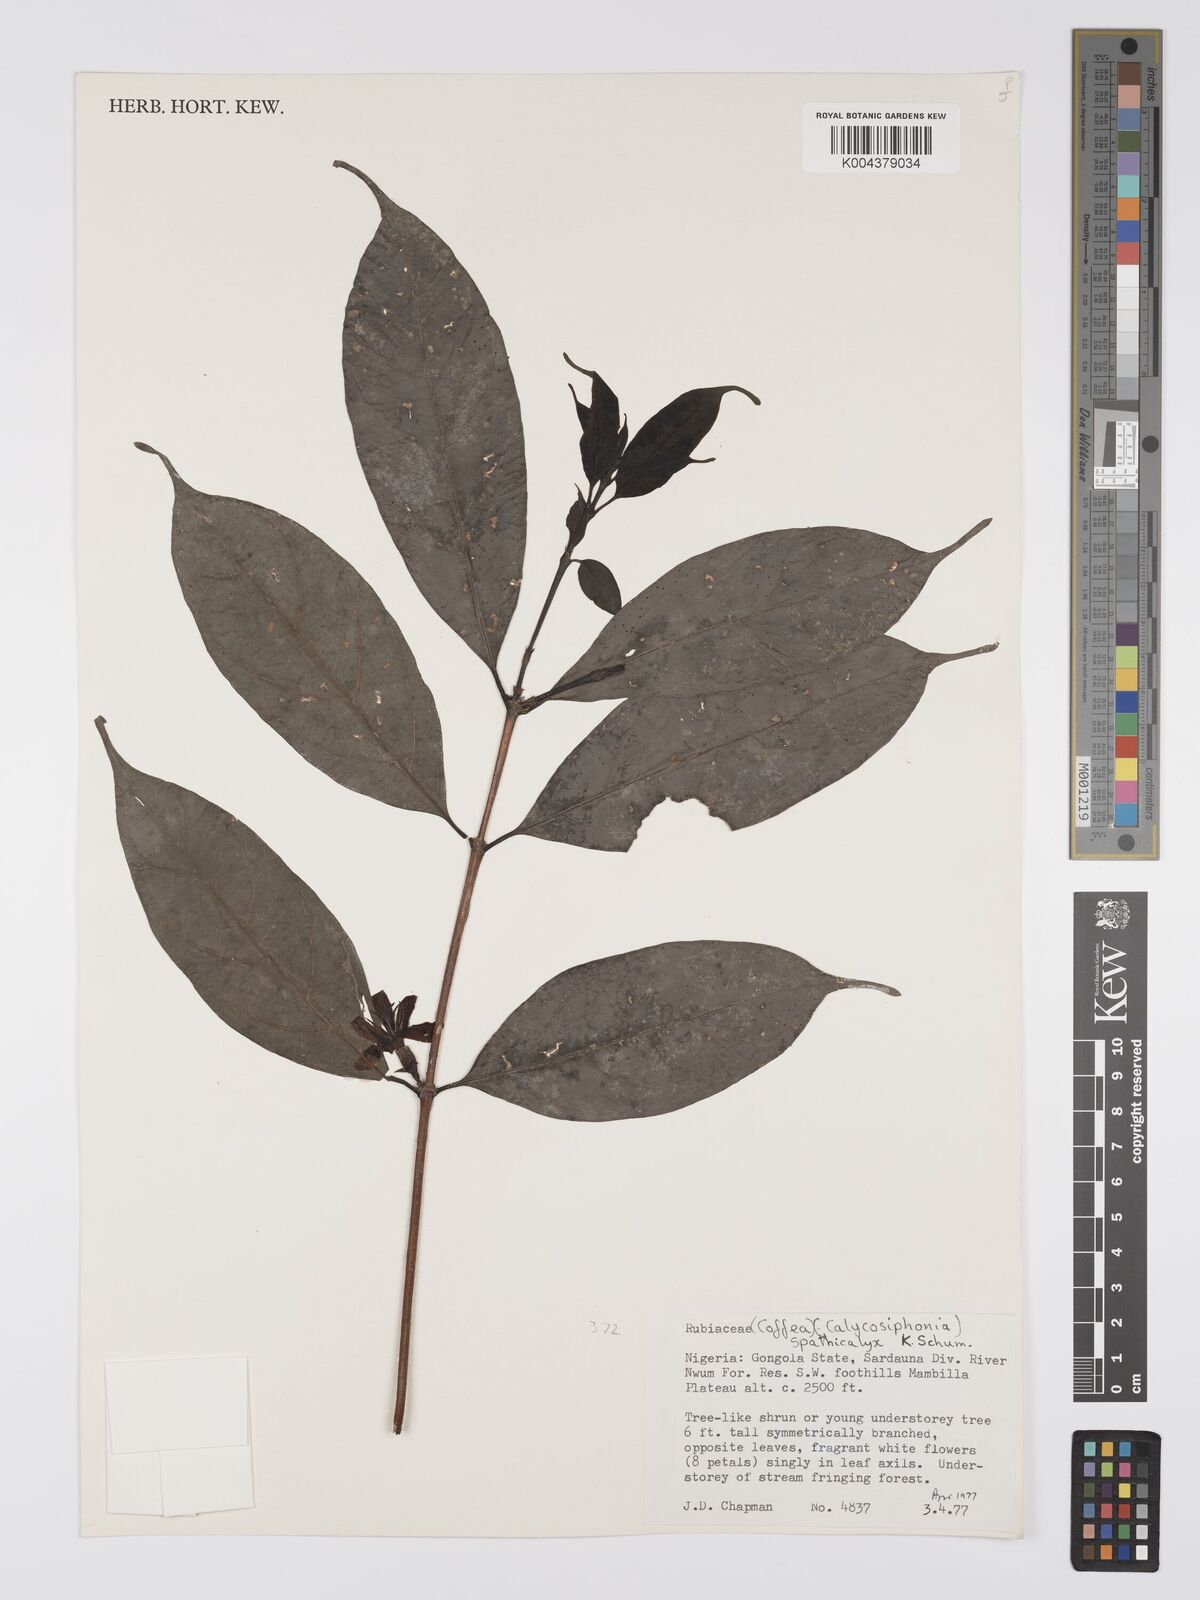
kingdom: Plantae
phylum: Tracheophyta
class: Magnoliopsida
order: Gentianales
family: Rubiaceae
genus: Calycosiphonia
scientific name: Calycosiphonia spathicalyx
